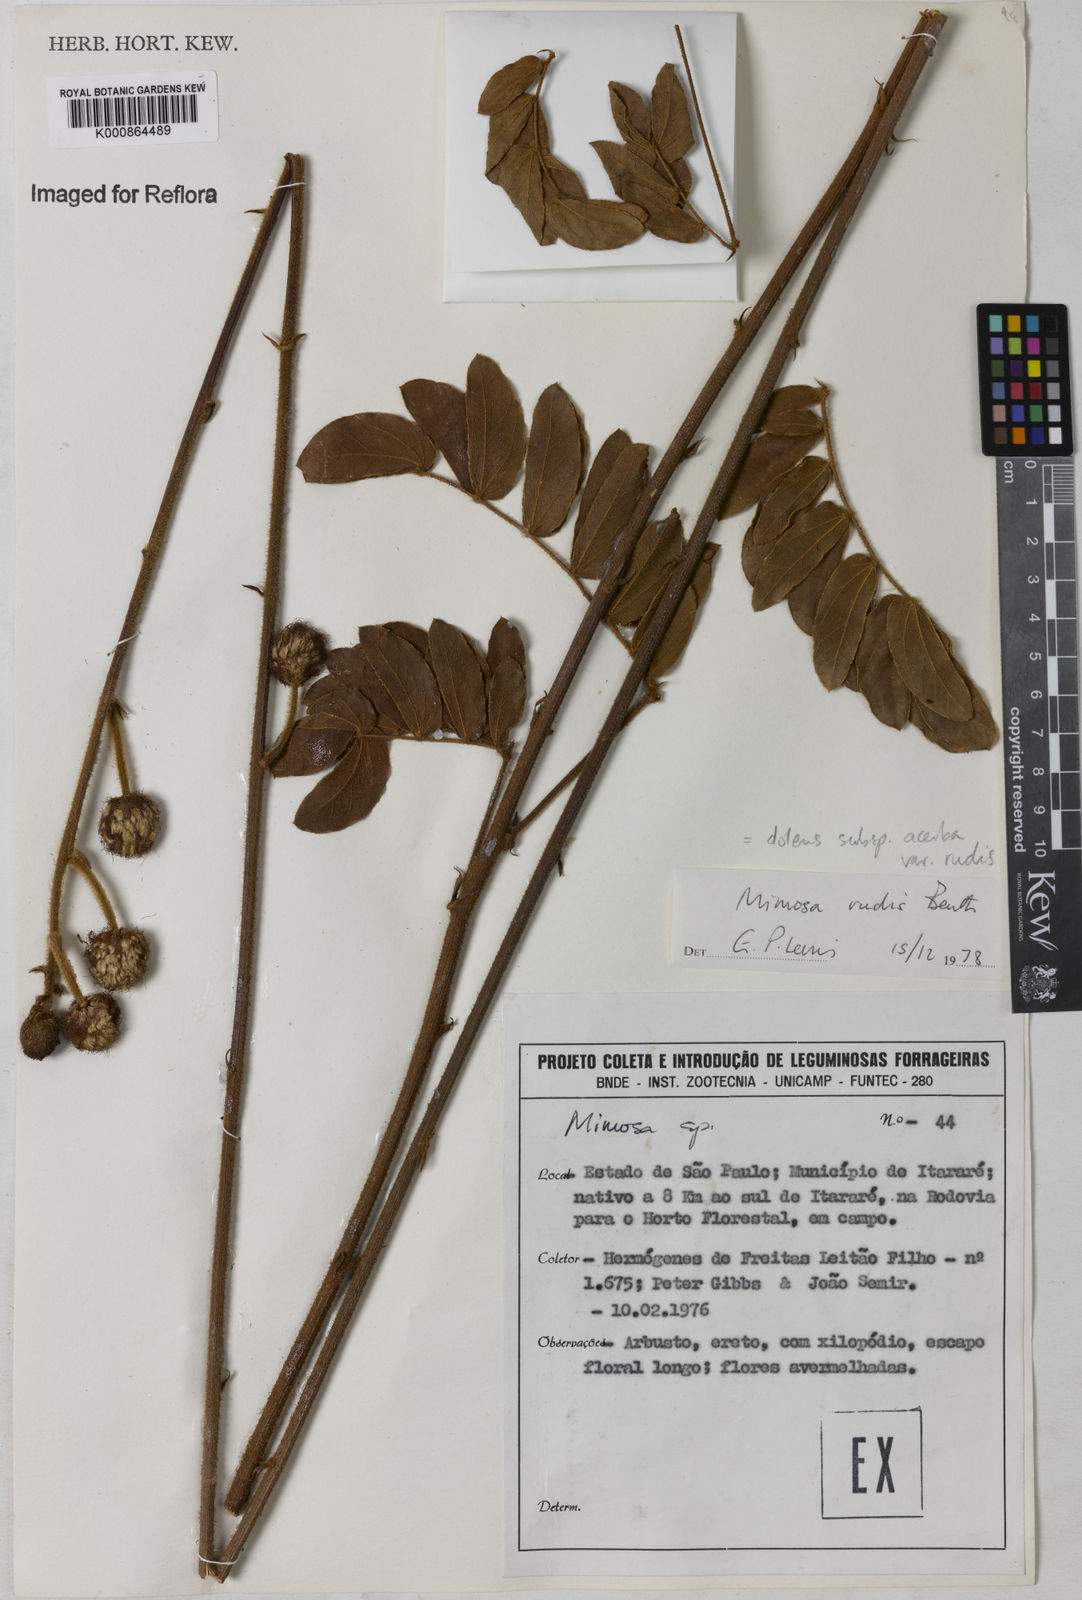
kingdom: Plantae
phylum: Tracheophyta
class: Magnoliopsida
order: Fabales
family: Fabaceae
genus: Mimosa
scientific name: Mimosa dolens
